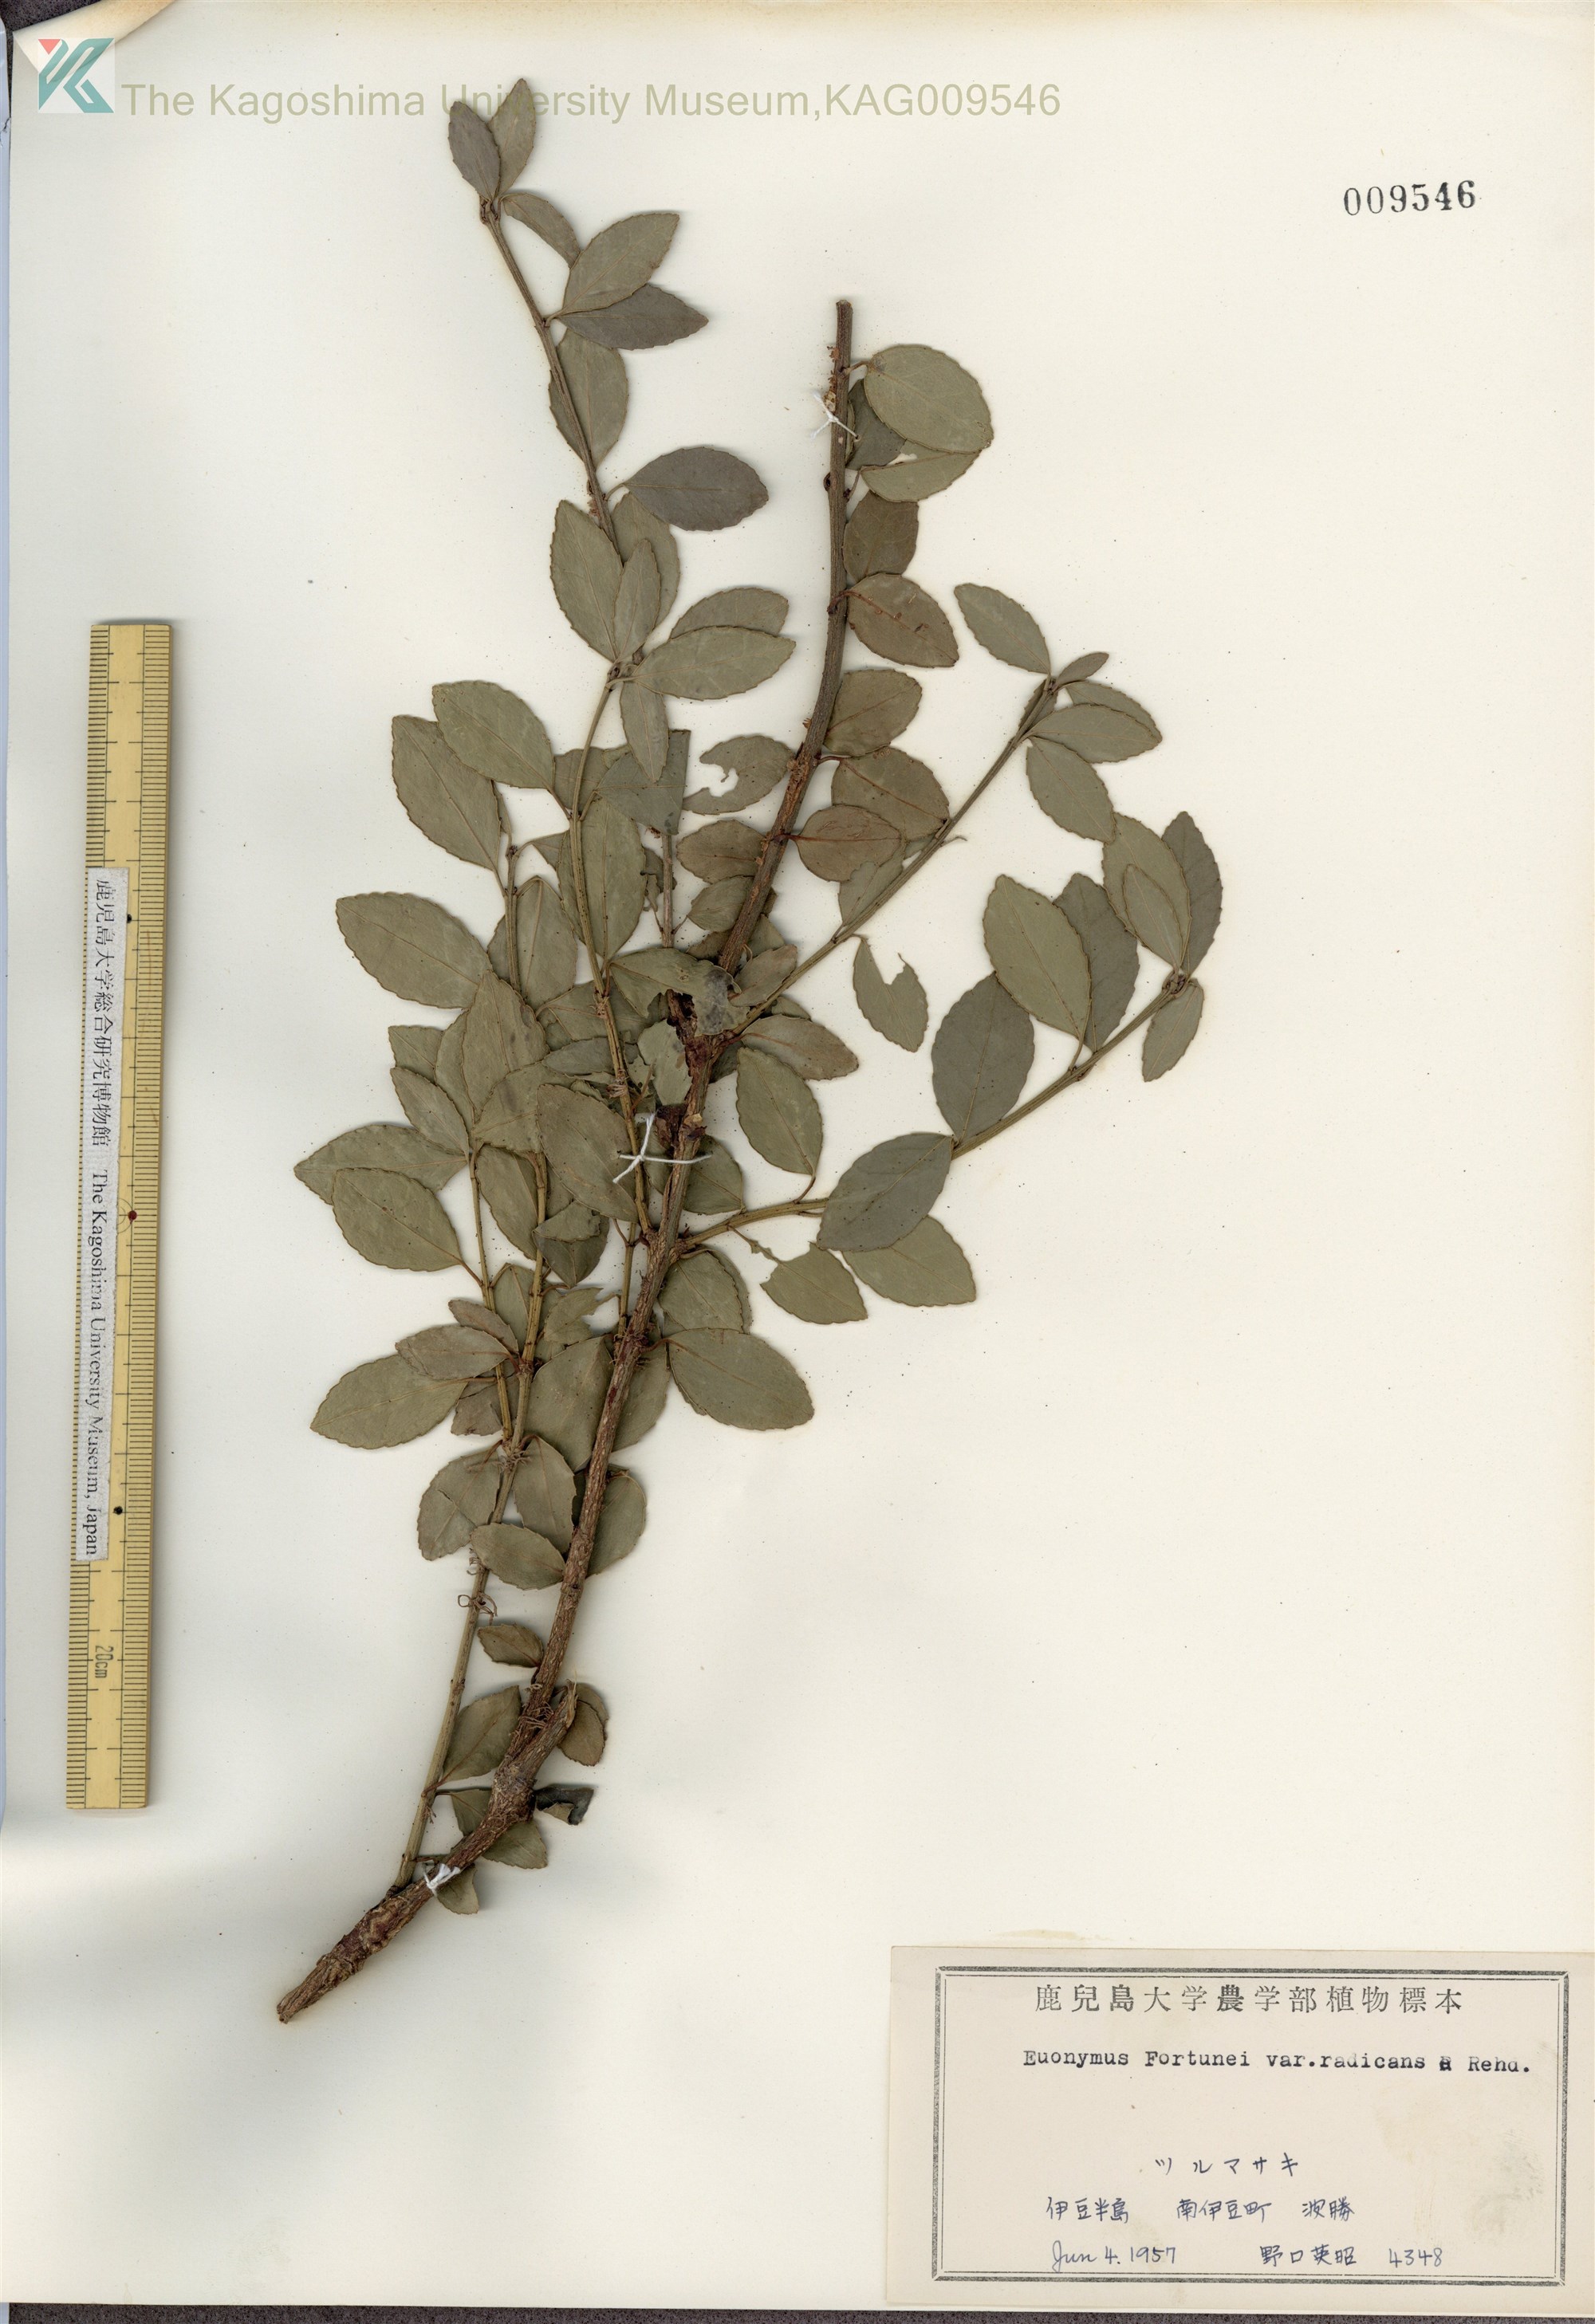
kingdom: Plantae
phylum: Tracheophyta
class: Magnoliopsida
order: Celastrales
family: Celastraceae
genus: Euonymus
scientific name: Euonymus fortunei
